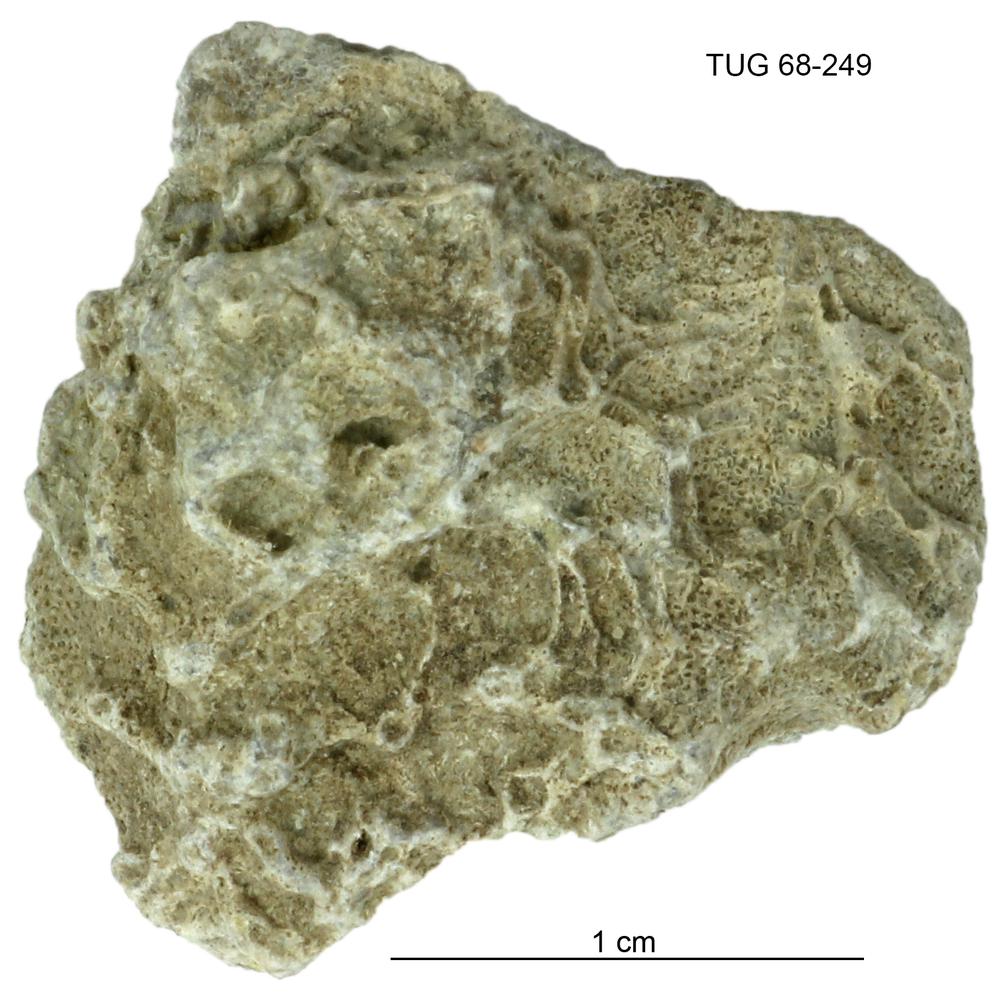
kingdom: Animalia
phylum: Bryozoa
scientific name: Bryozoa
